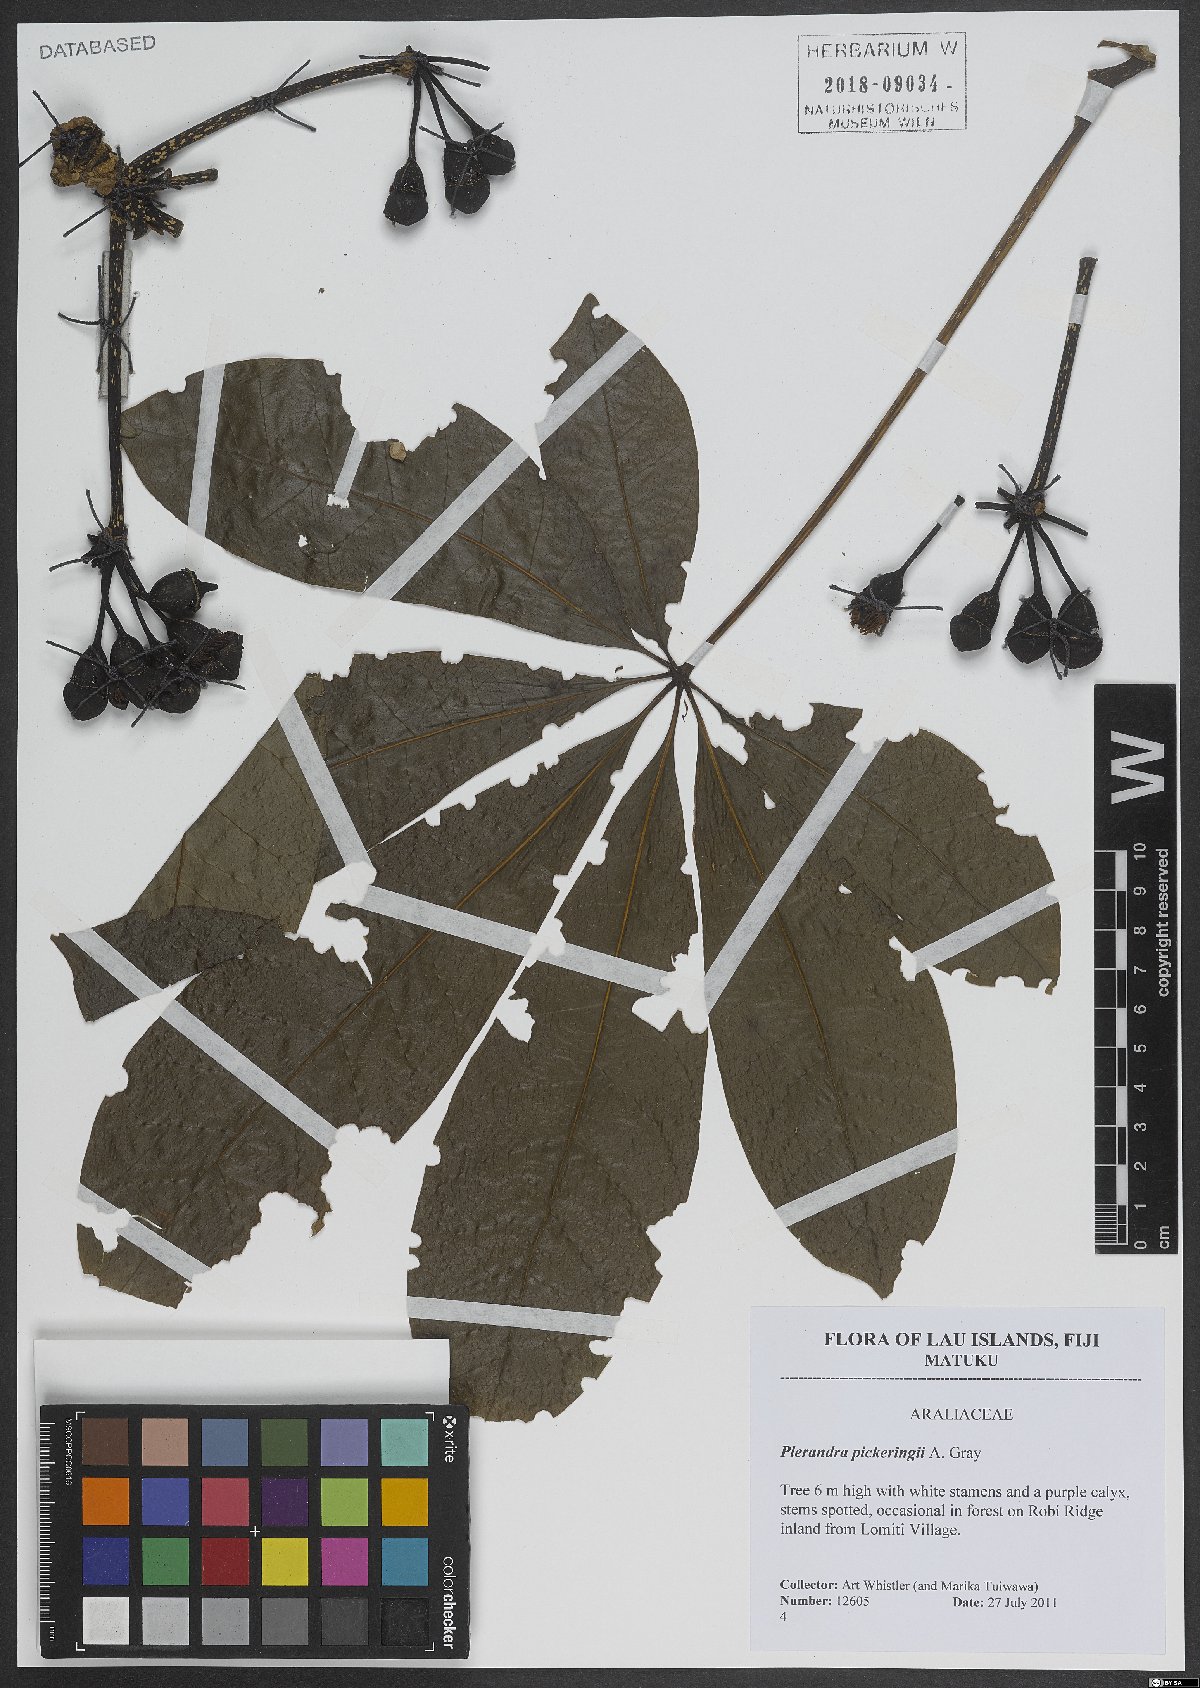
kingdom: Plantae
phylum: Tracheophyta
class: Magnoliopsida
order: Apiales
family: Araliaceae
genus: Plerandra
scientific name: Plerandra pickeringii
